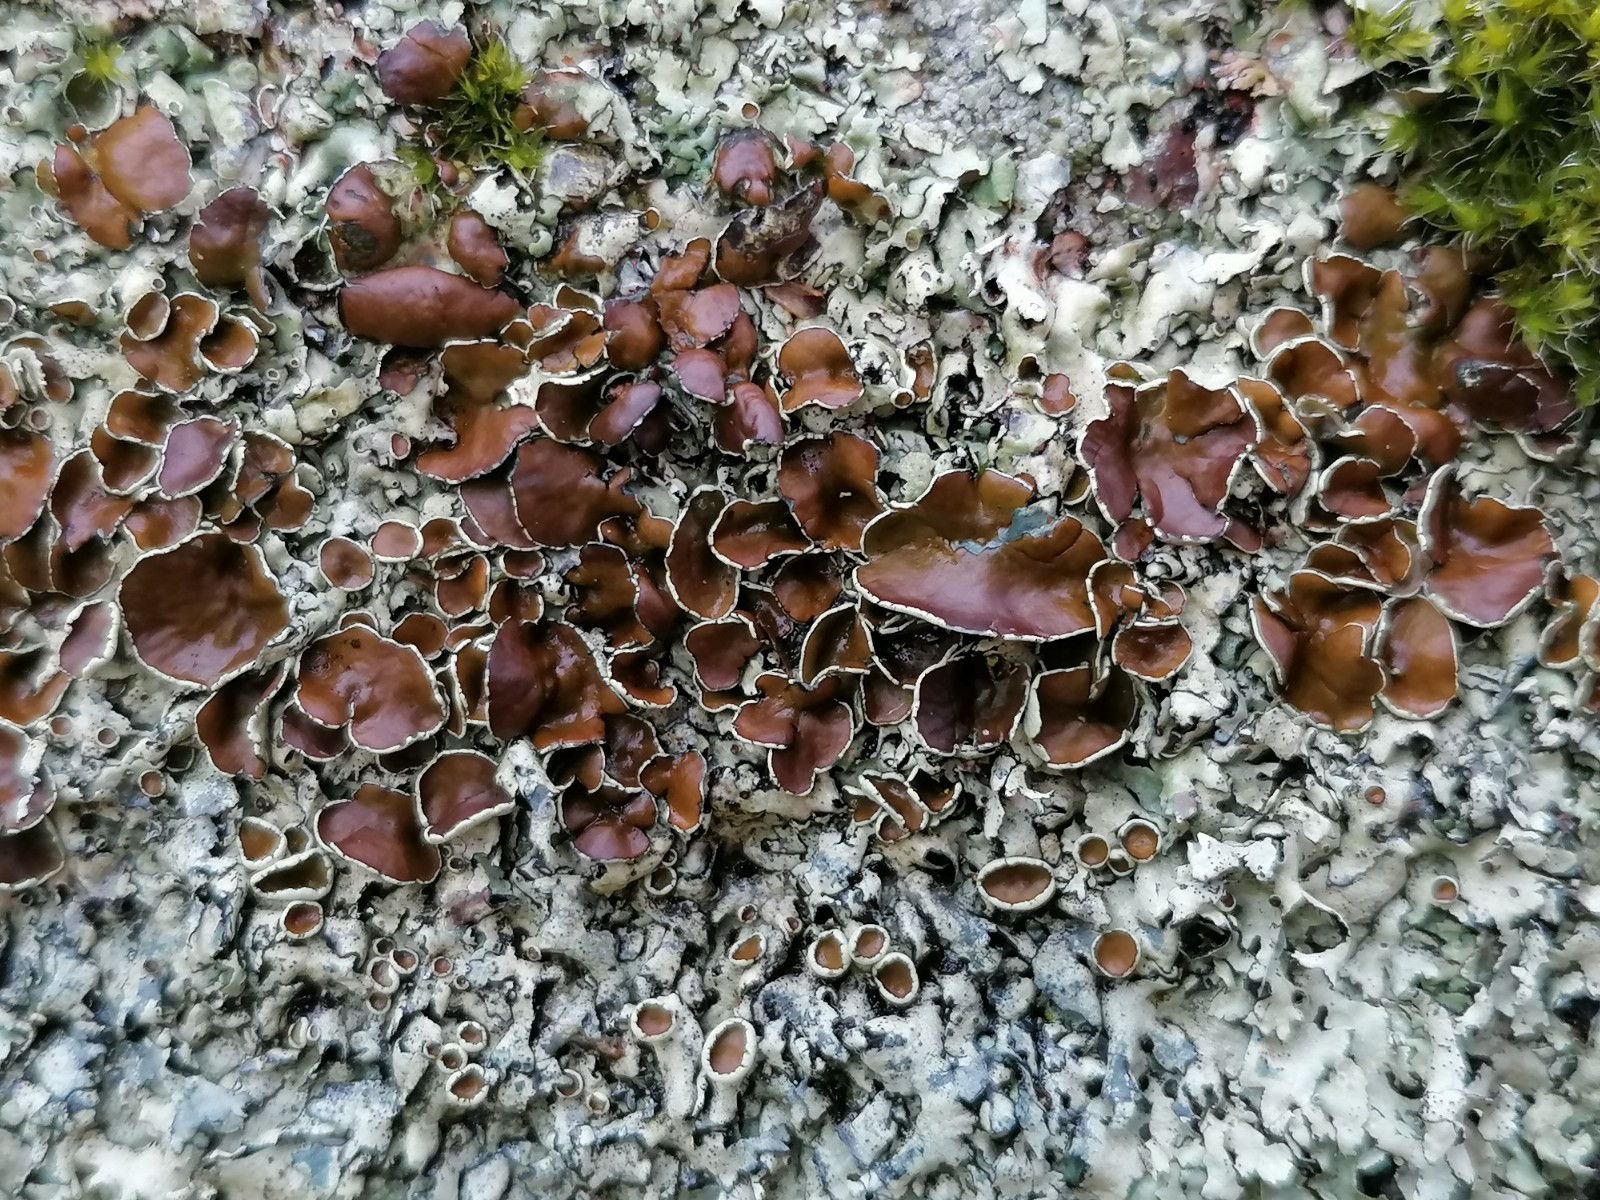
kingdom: Fungi
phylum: Ascomycota
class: Lecanoromycetes
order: Lecanorales
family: Parmeliaceae
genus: Xanthoparmelia
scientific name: Xanthoparmelia conspersa
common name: messing-skållav
